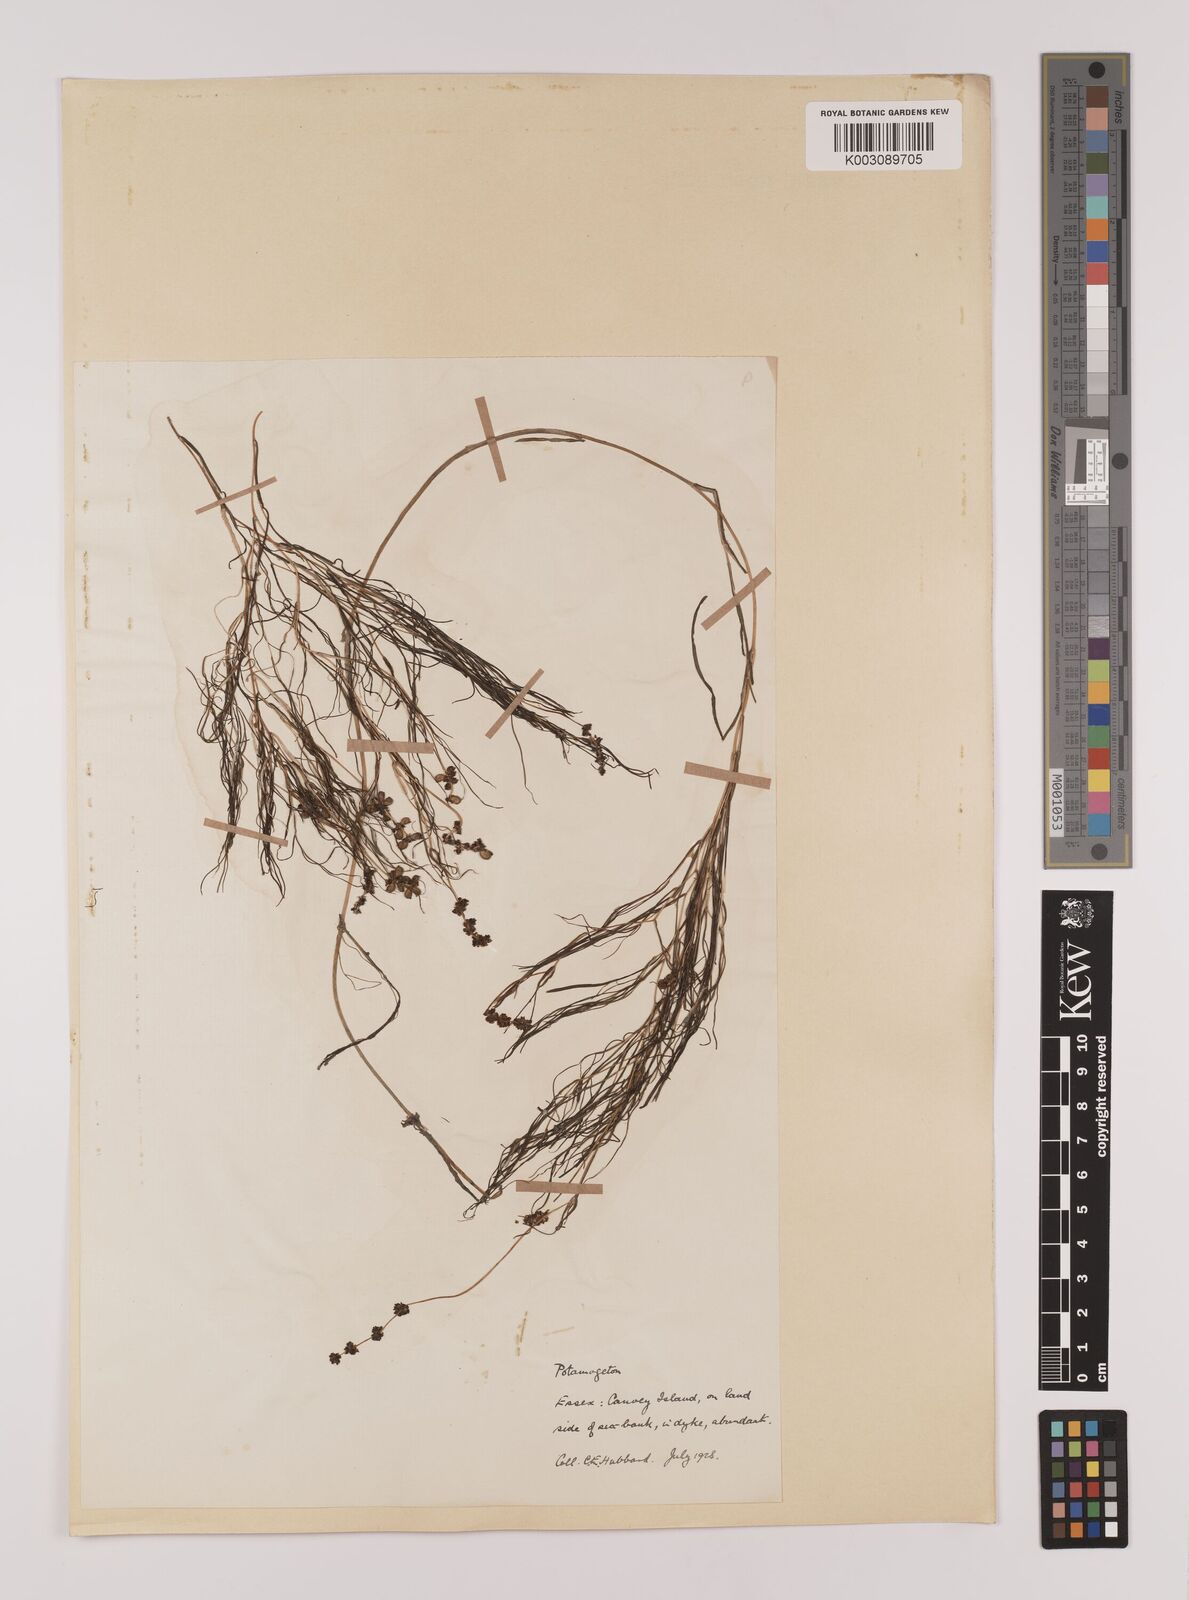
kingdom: Plantae
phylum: Tracheophyta
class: Liliopsida
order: Alismatales
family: Potamogetonaceae
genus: Stuckenia
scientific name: Stuckenia pectinata
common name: Sago pondweed
